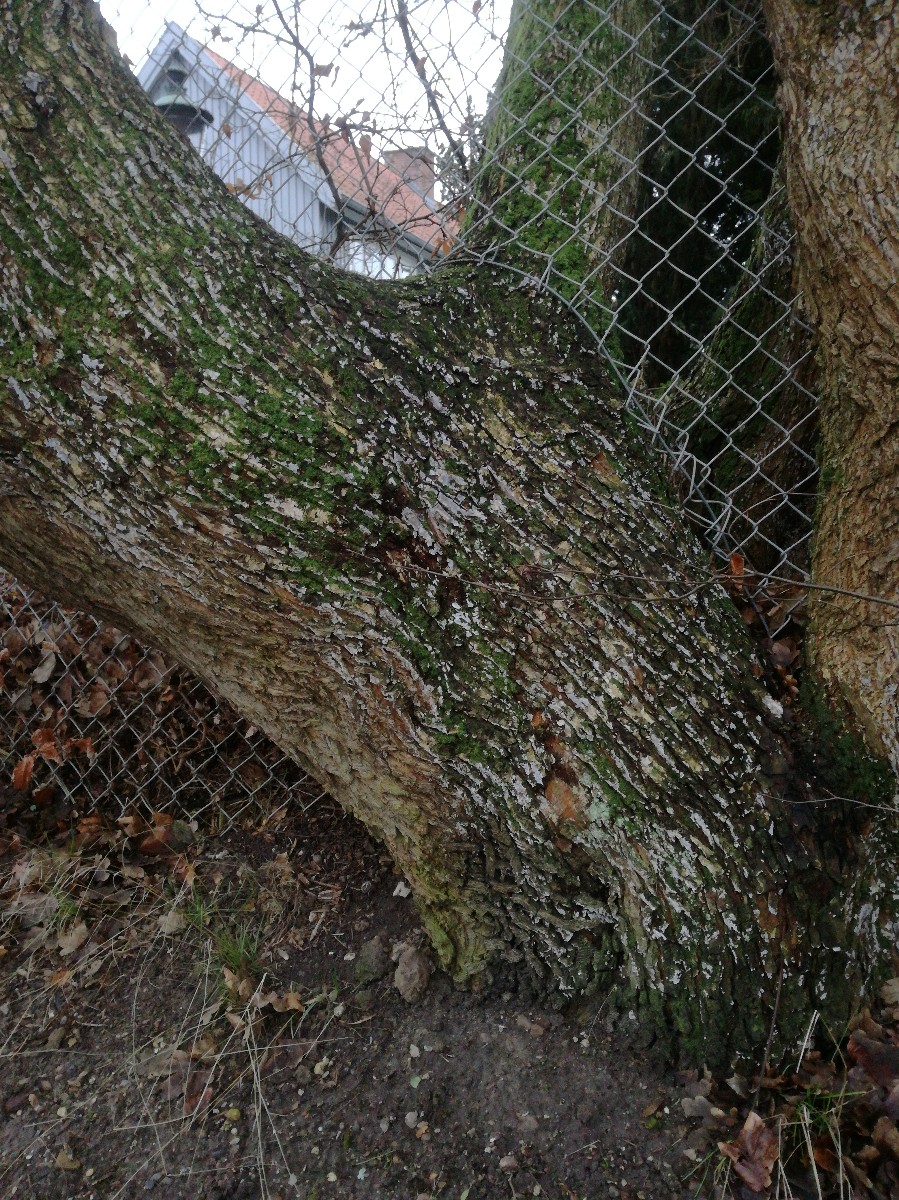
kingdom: Fungi
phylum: Basidiomycota
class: Agaricomycetes
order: Agaricales
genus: Dendrothele
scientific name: Dendrothele acerina
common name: navr-kalkplet
